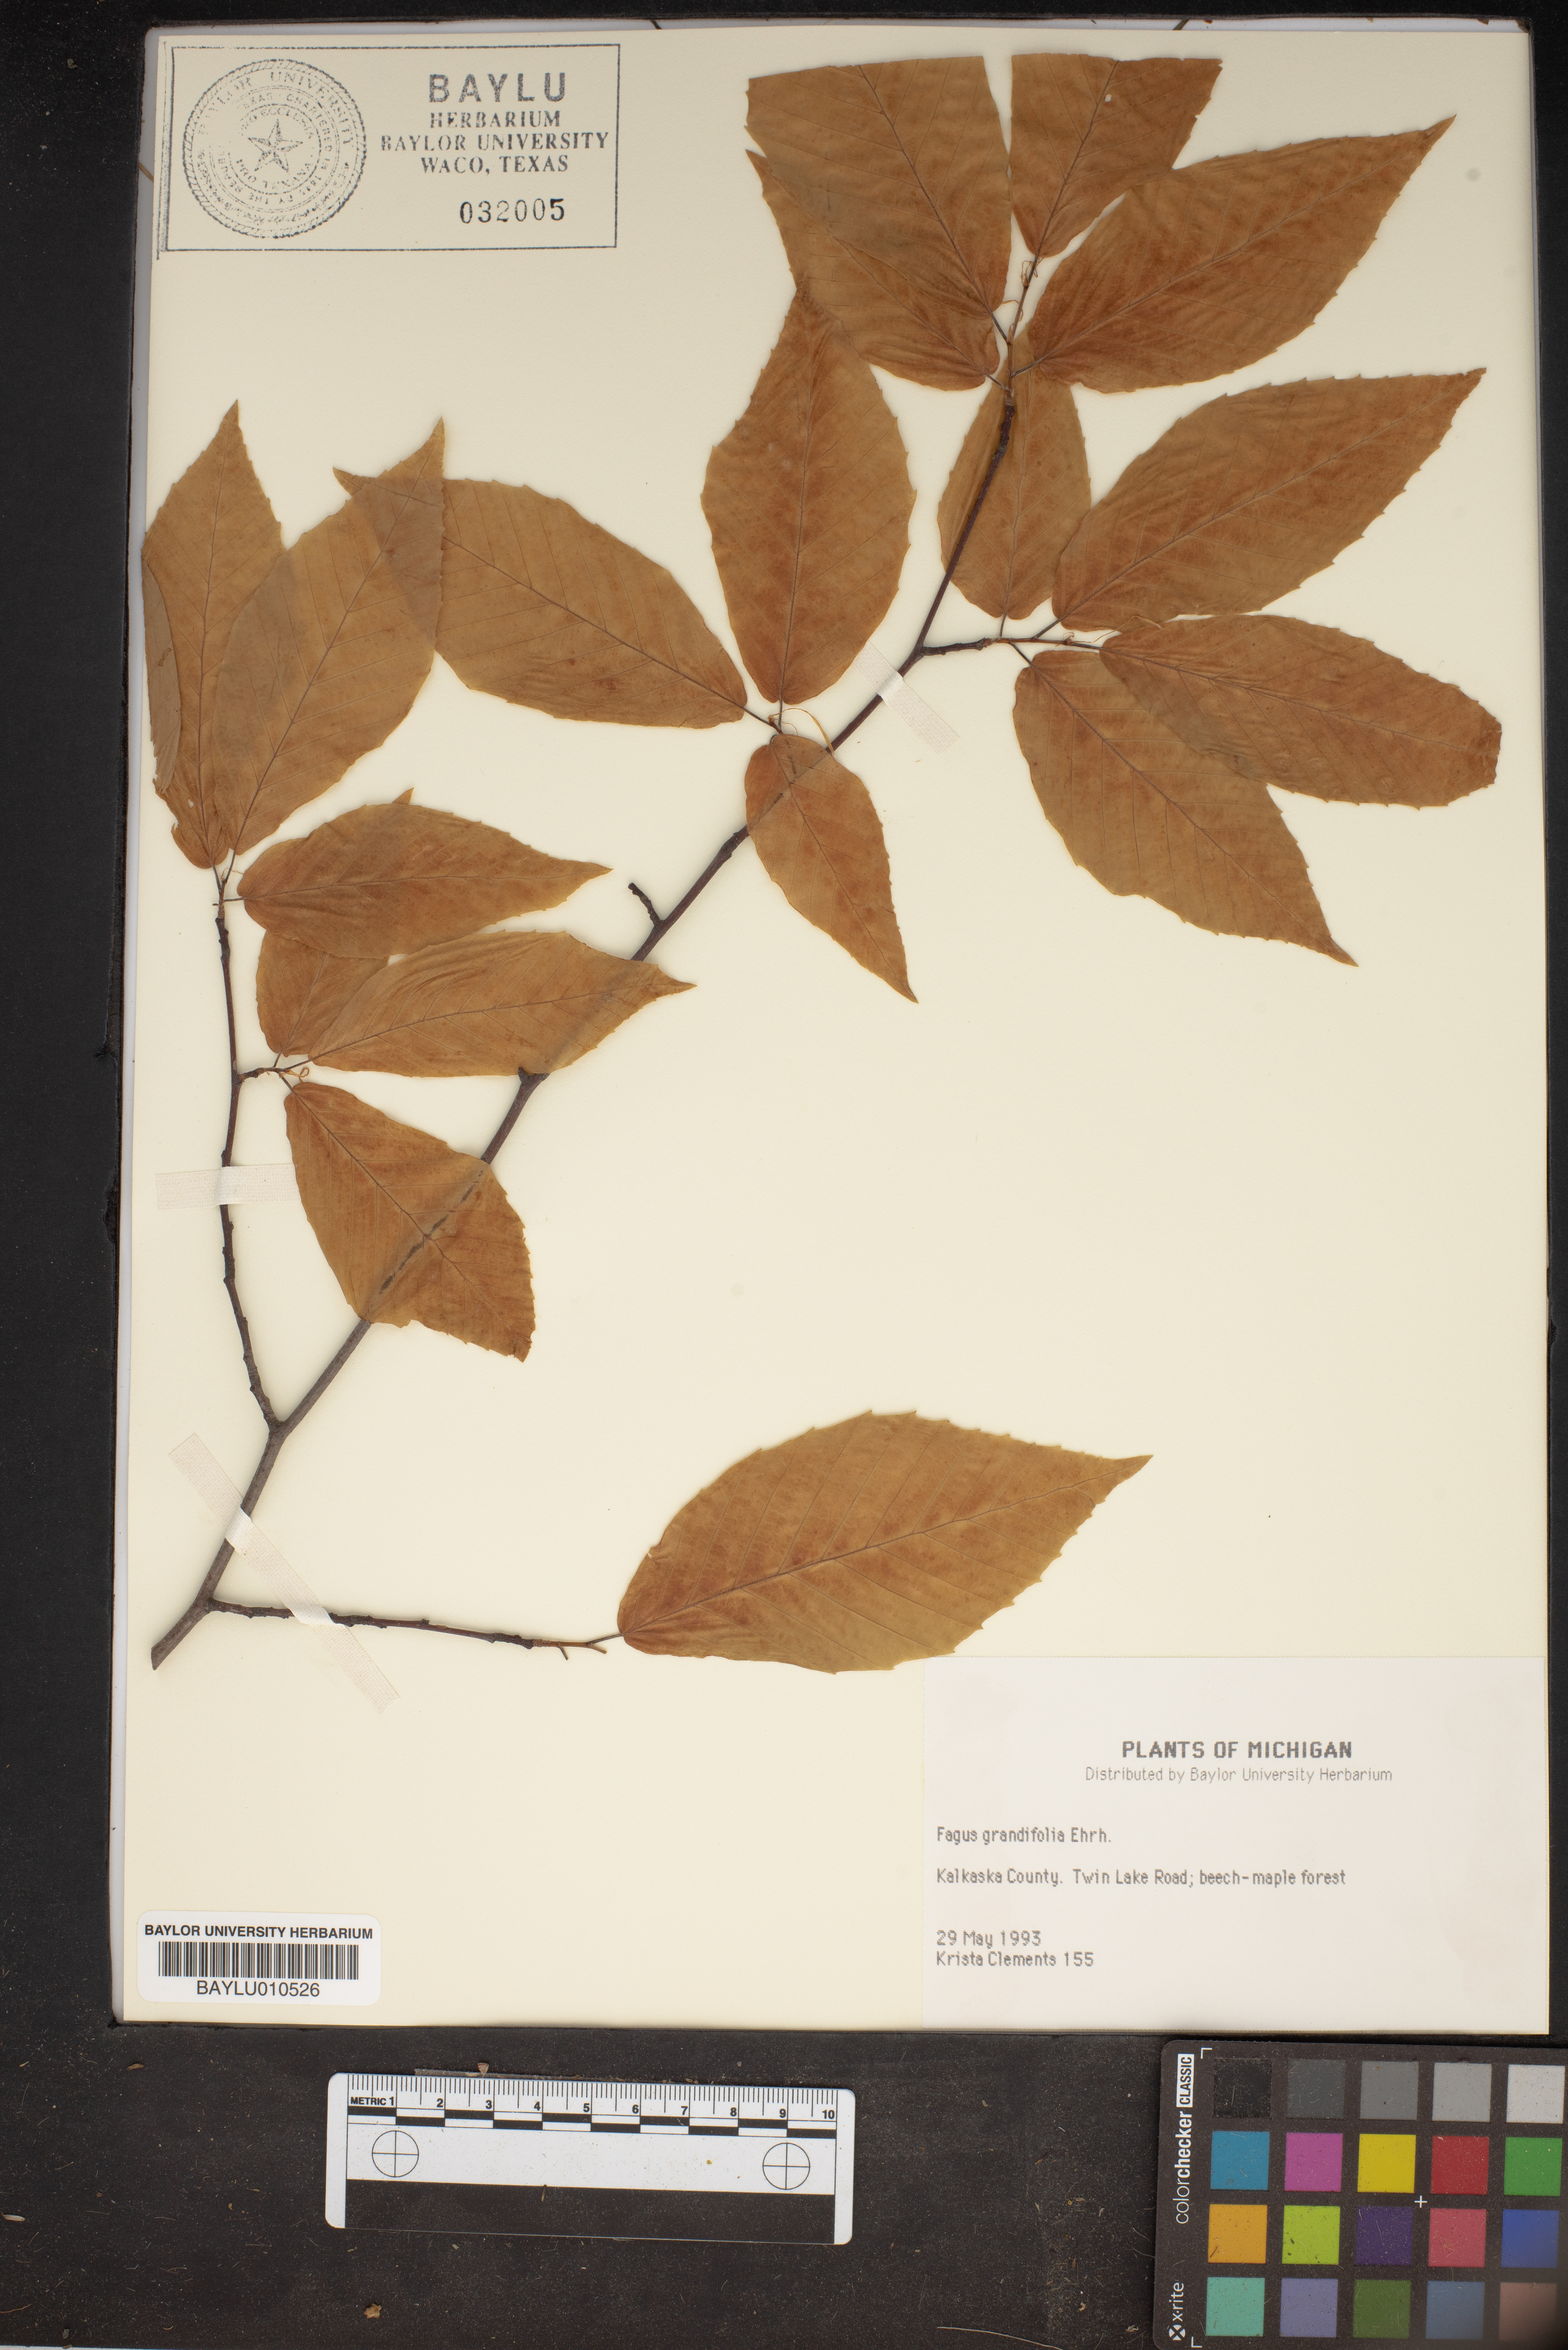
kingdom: Plantae
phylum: Tracheophyta
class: Magnoliopsida
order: Fagales
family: Fagaceae
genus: Fagus
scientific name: Fagus grandifolia
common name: American beech
